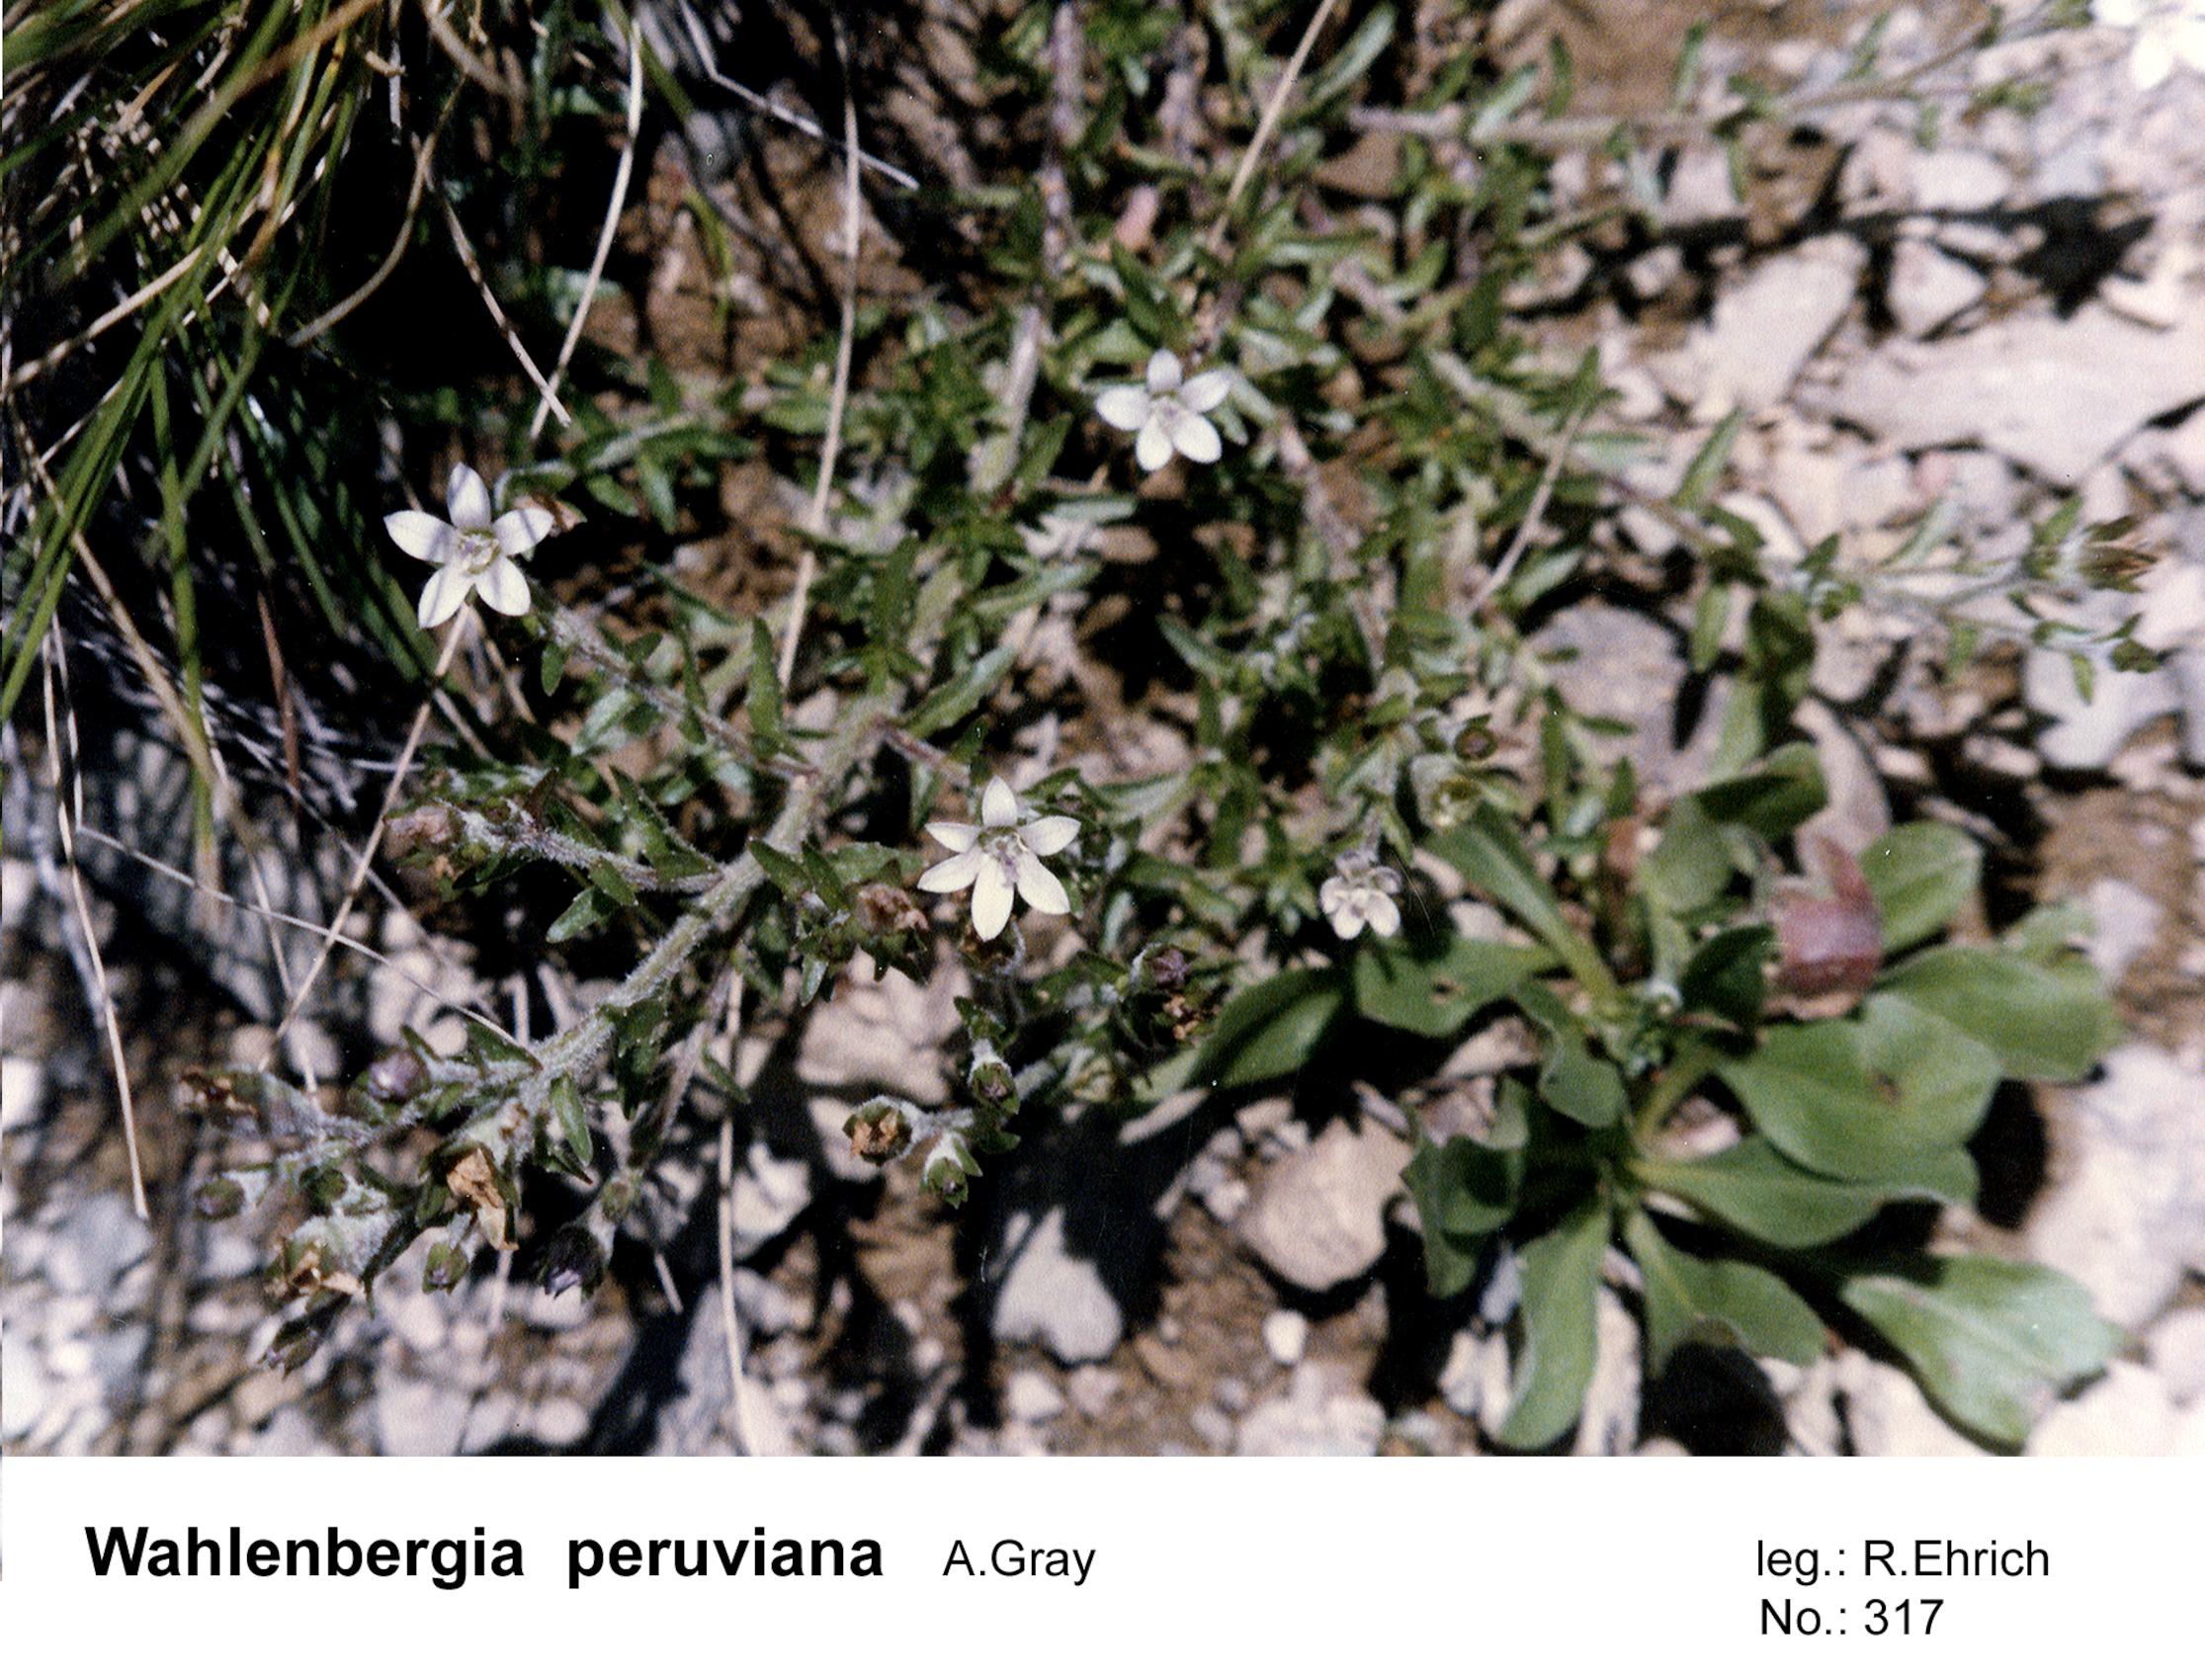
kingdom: Plantae
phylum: Tracheophyta
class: Magnoliopsida
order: Asterales
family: Campanulaceae
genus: Wahlenbergia
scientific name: Wahlenbergia peruviana
